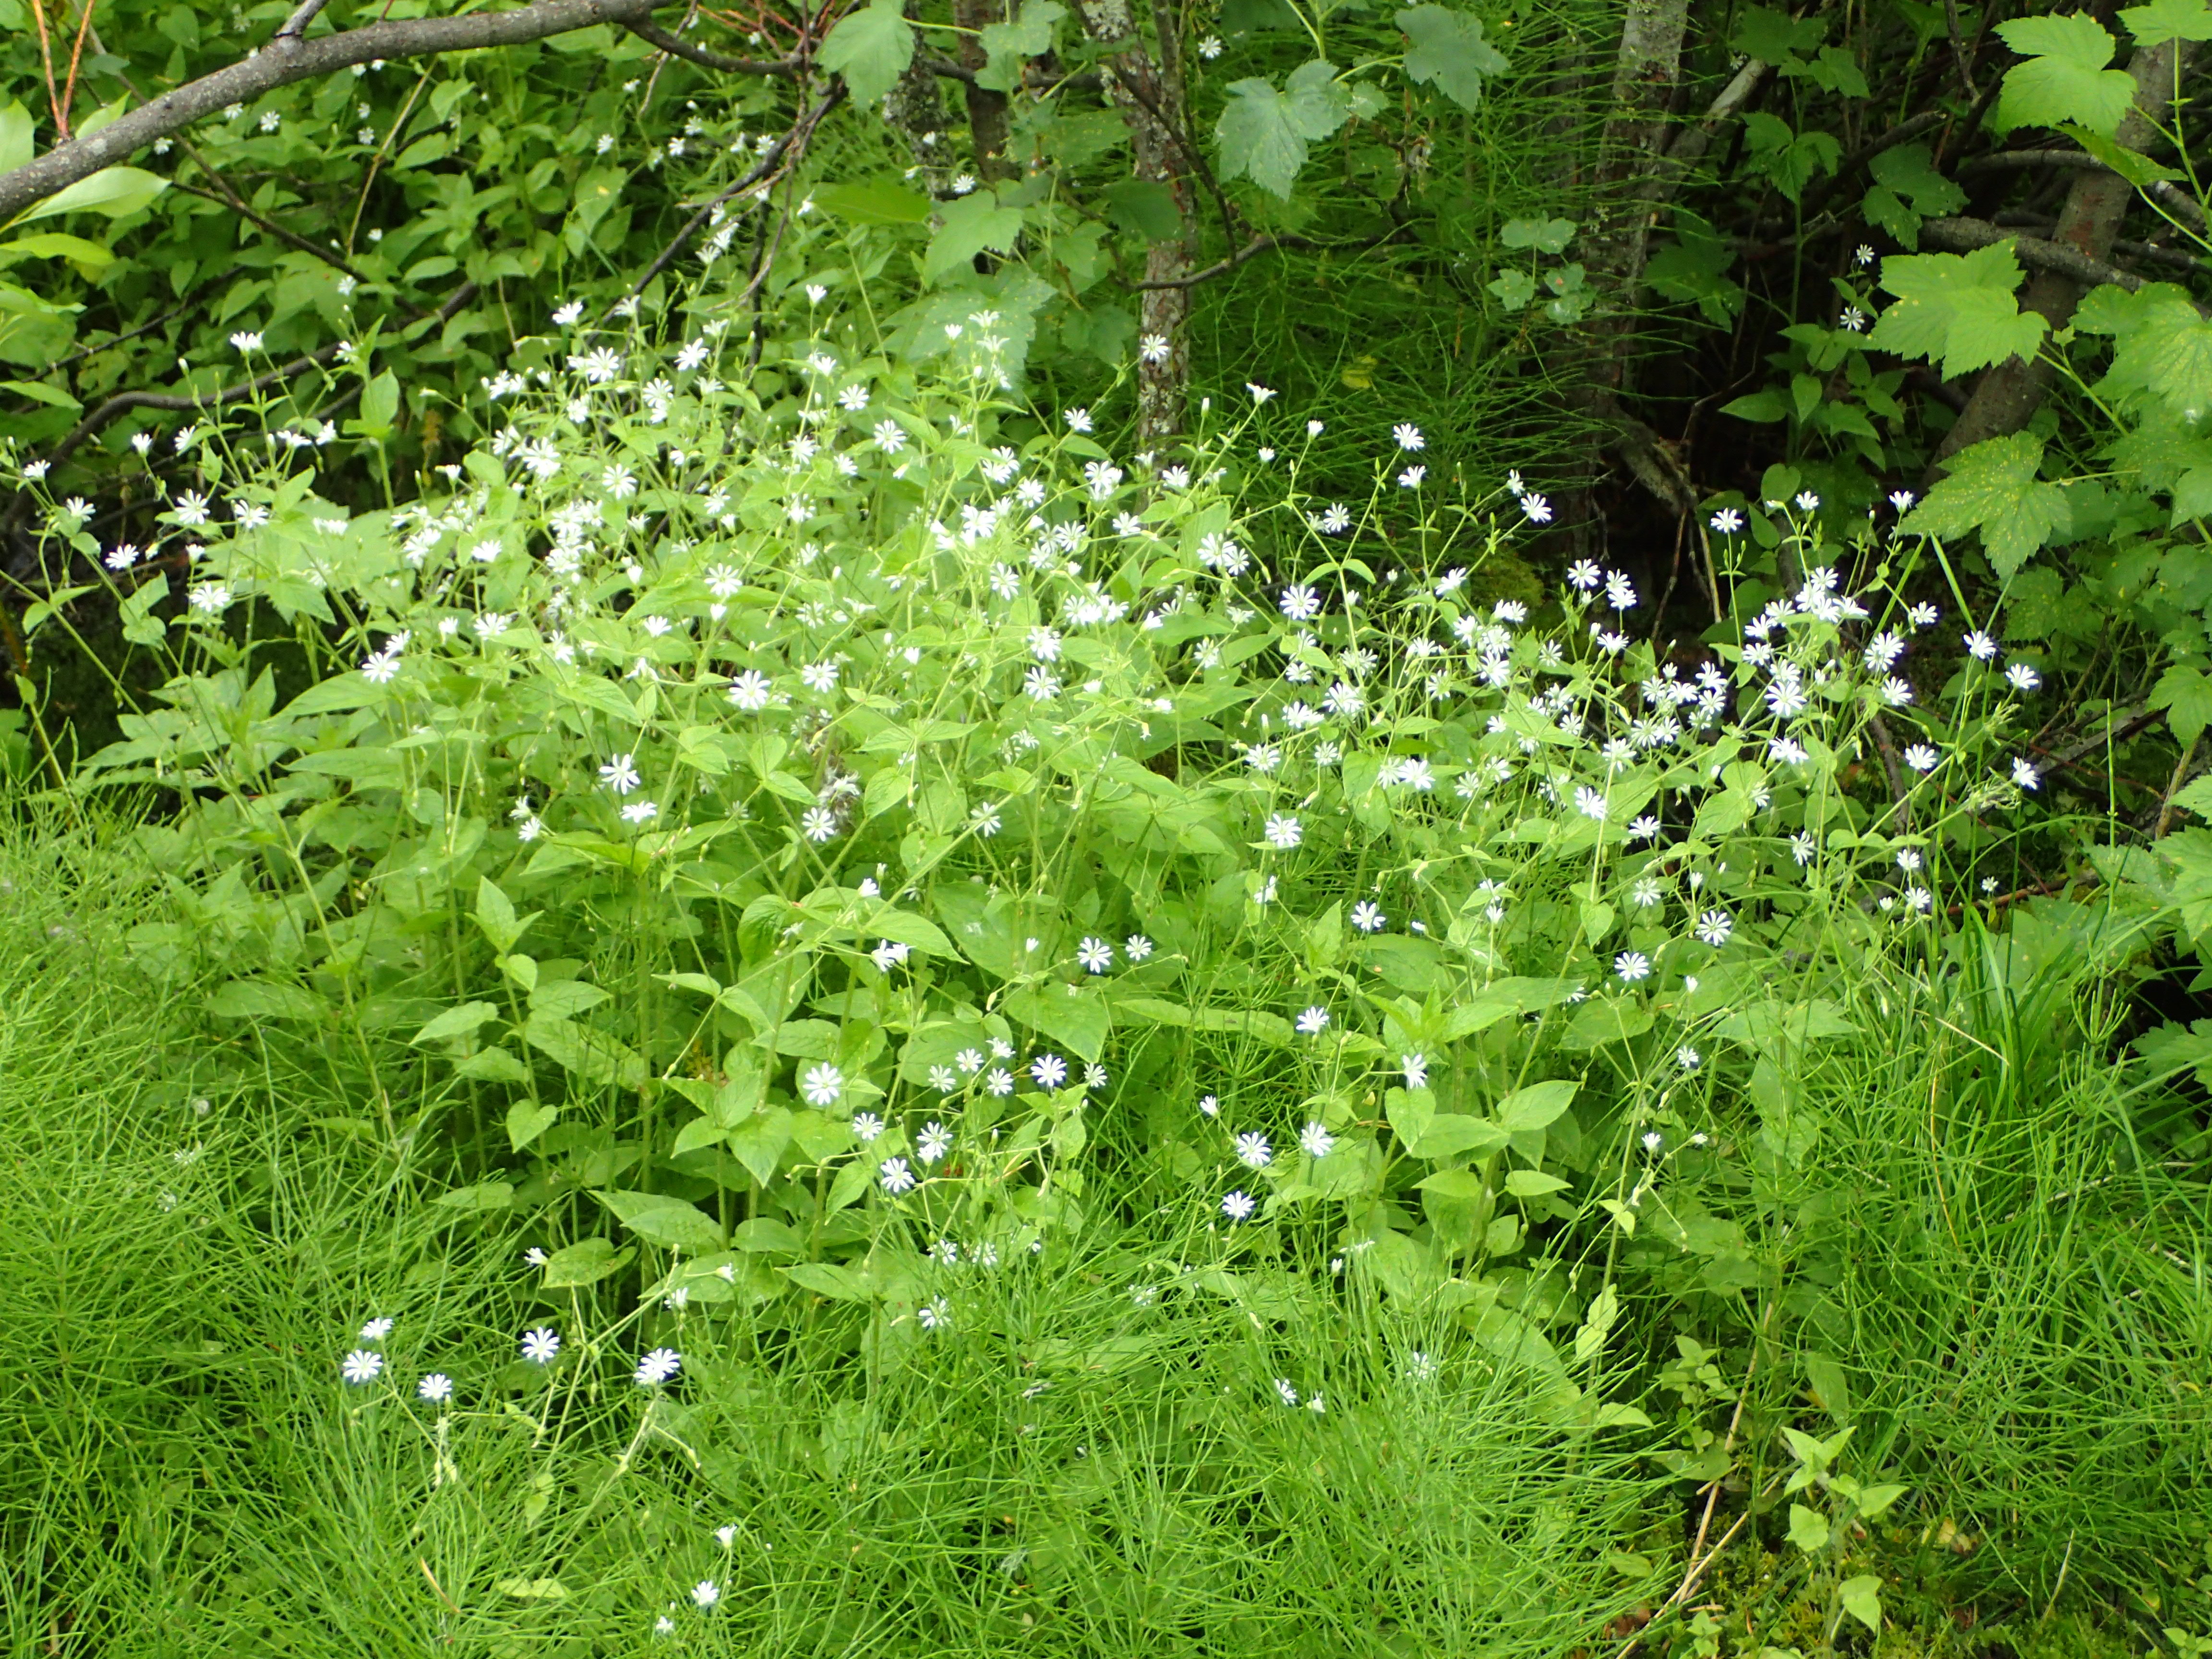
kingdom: Plantae
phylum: Tracheophyta
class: Magnoliopsida
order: Caryophyllales
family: Caryophyllaceae
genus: Stellaria
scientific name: Stellaria nemorum
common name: Wood stitchwort
